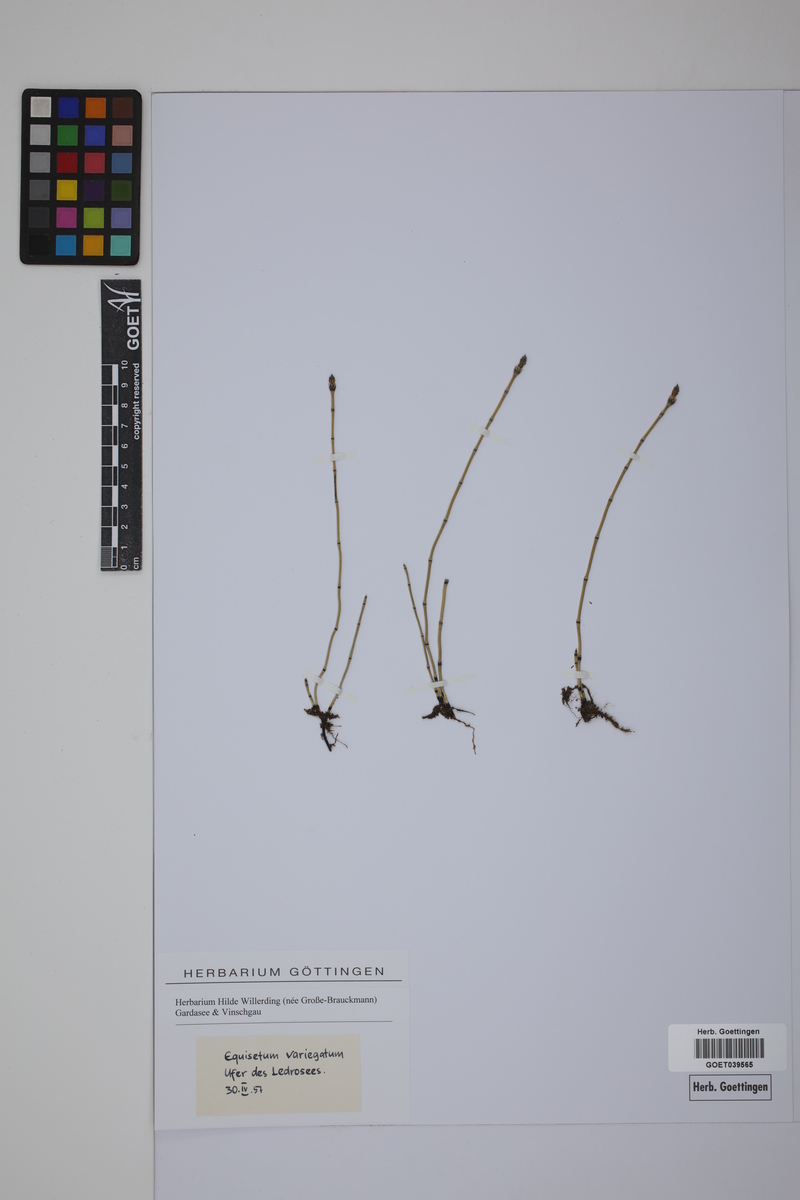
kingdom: Plantae
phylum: Tracheophyta
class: Polypodiopsida
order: Equisetales
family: Equisetaceae
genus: Equisetum
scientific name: Equisetum variegatum
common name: Variegated horsetail
